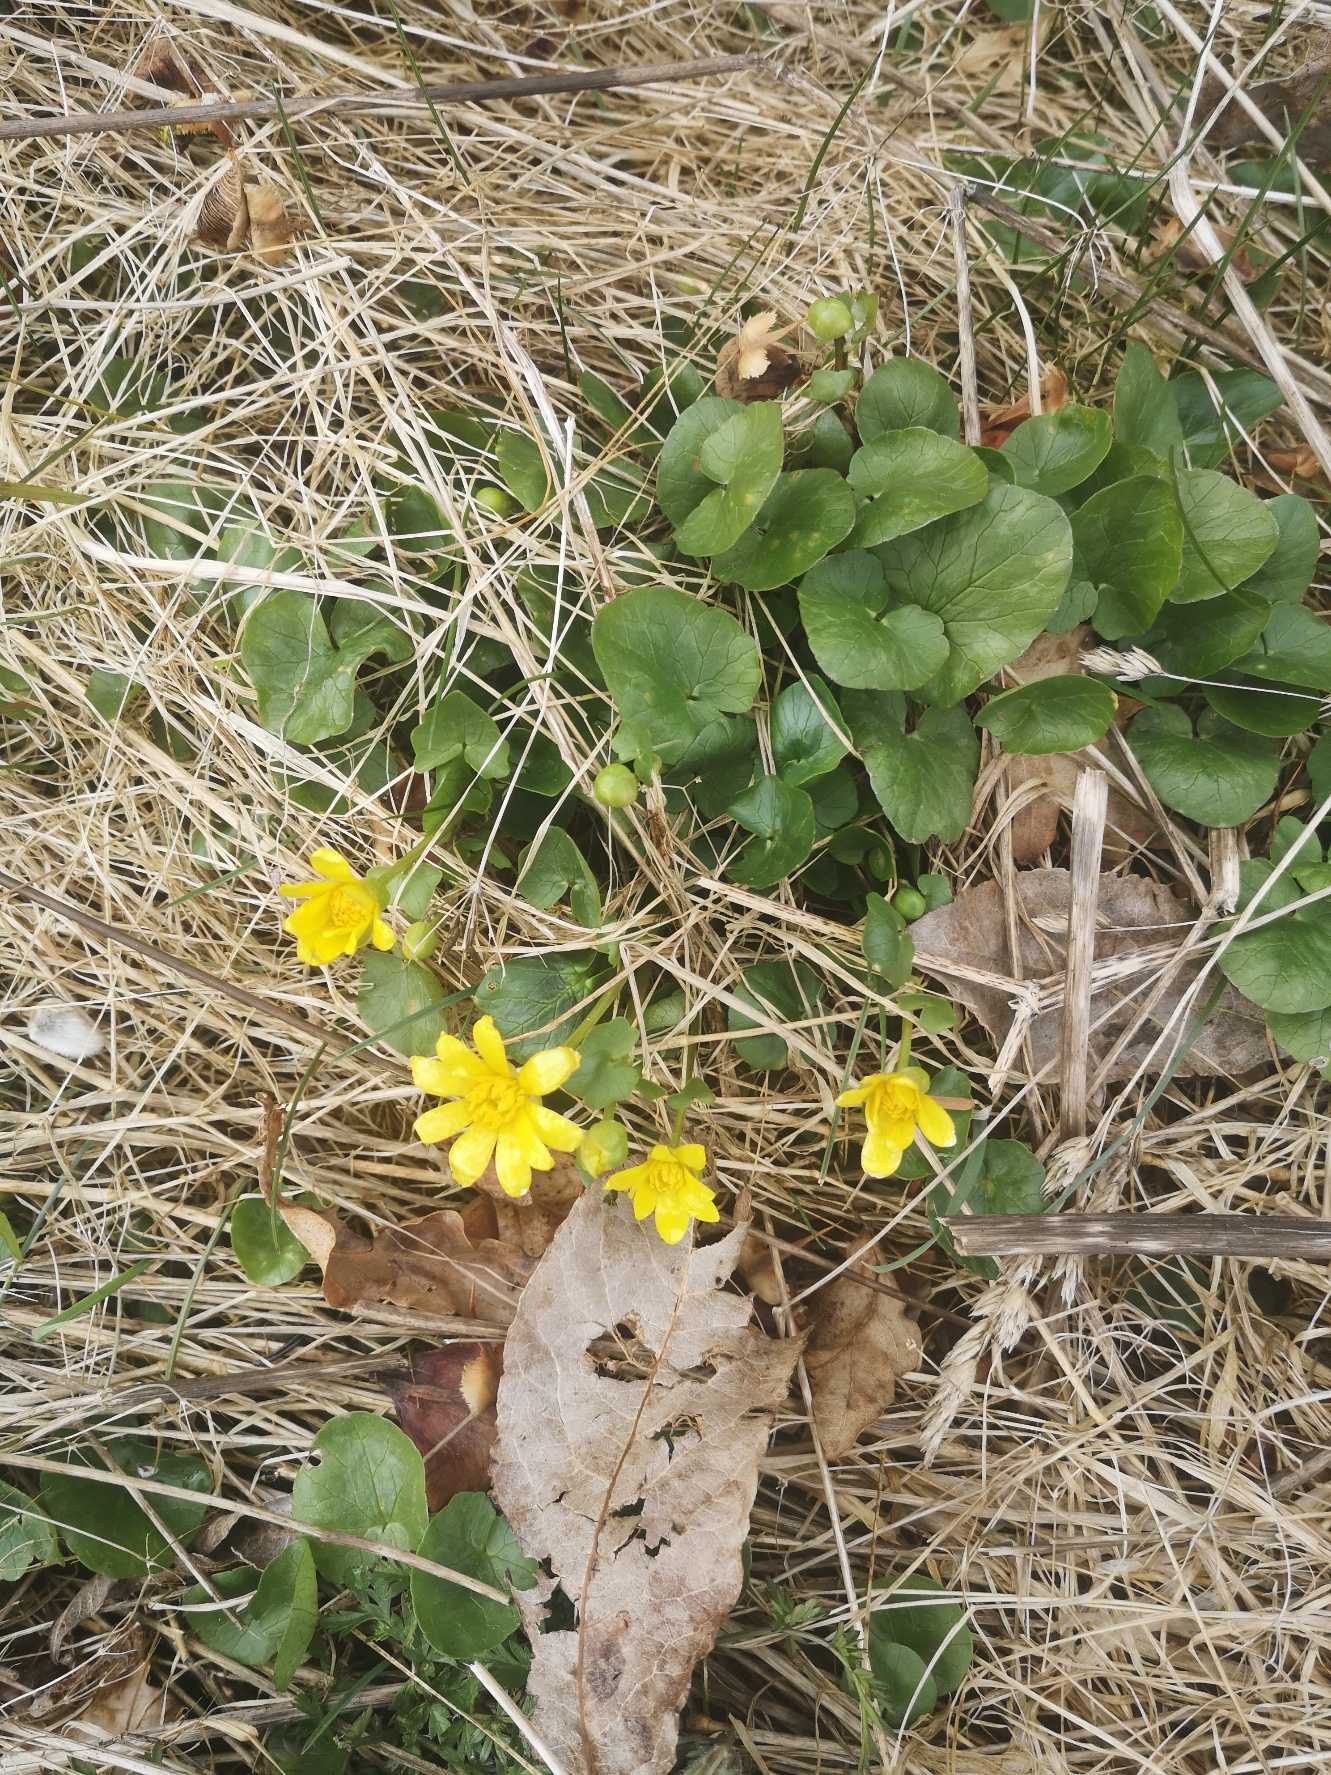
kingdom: Plantae
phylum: Tracheophyta
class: Magnoliopsida
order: Ranunculales
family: Ranunculaceae
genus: Ficaria
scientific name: Ficaria verna
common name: Vorterod
